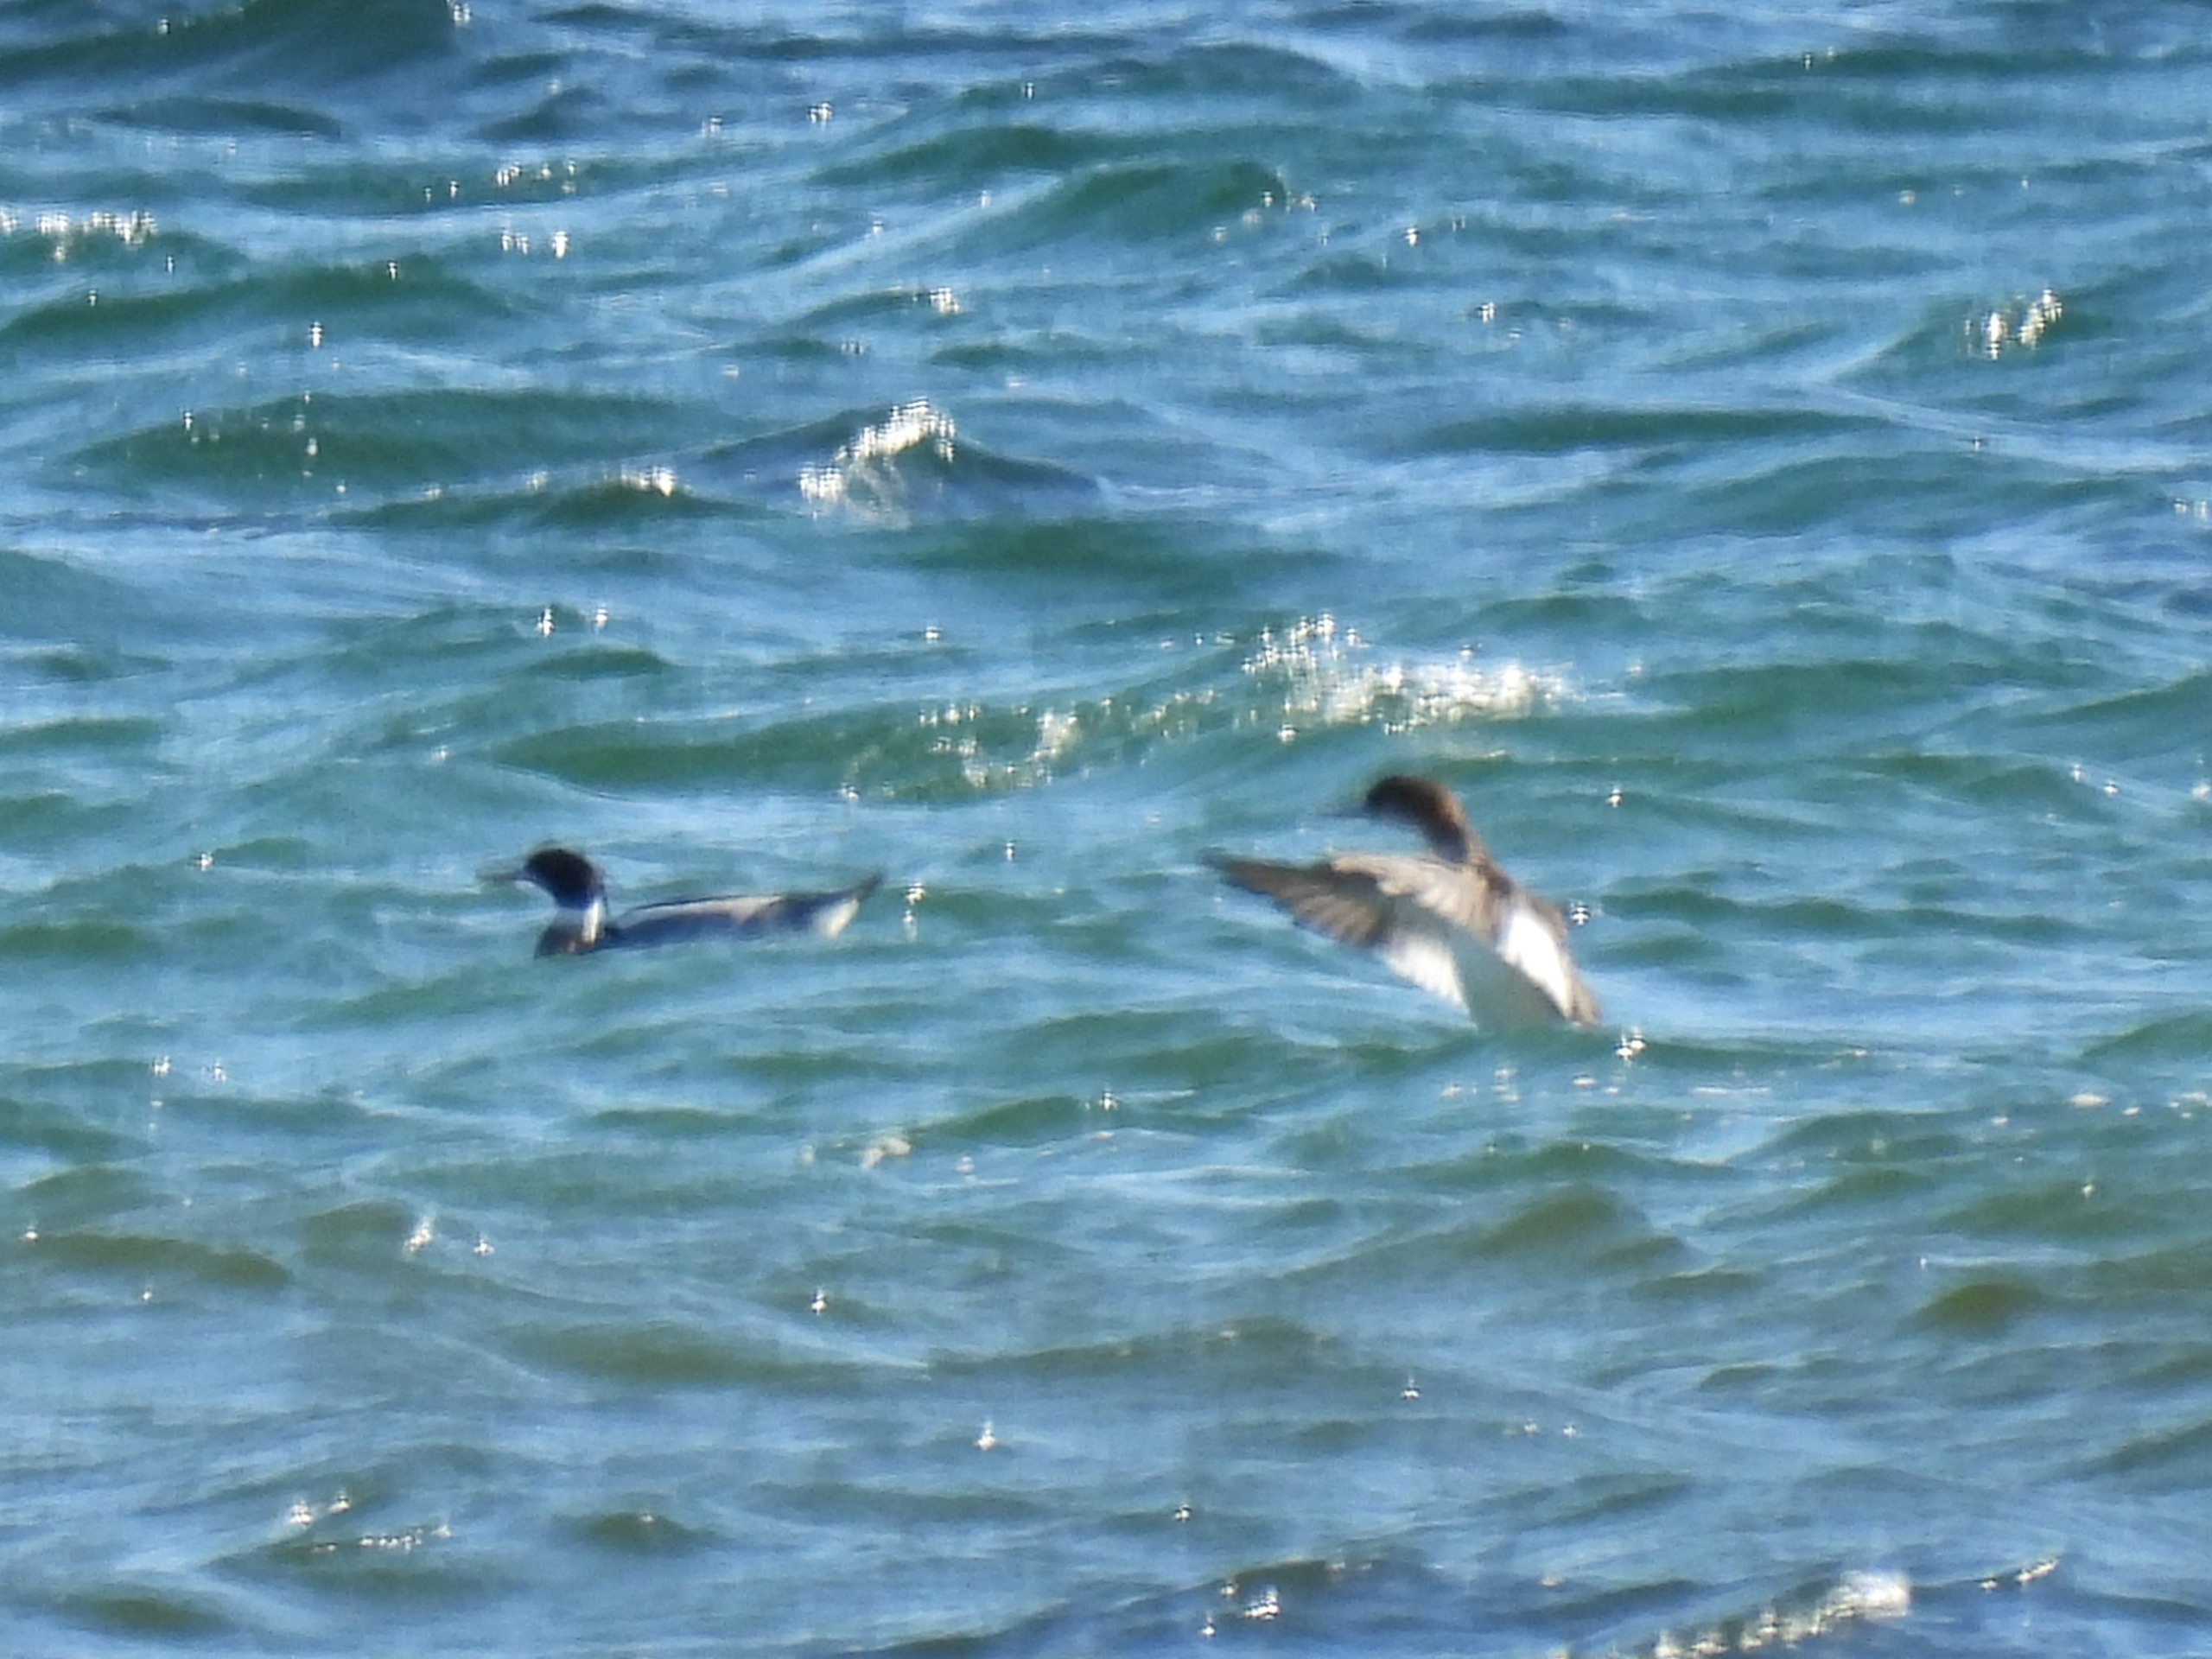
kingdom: Animalia
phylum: Chordata
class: Aves
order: Anseriformes
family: Anatidae
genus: Mergus
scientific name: Mergus serrator
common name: Toppet skallesluger
